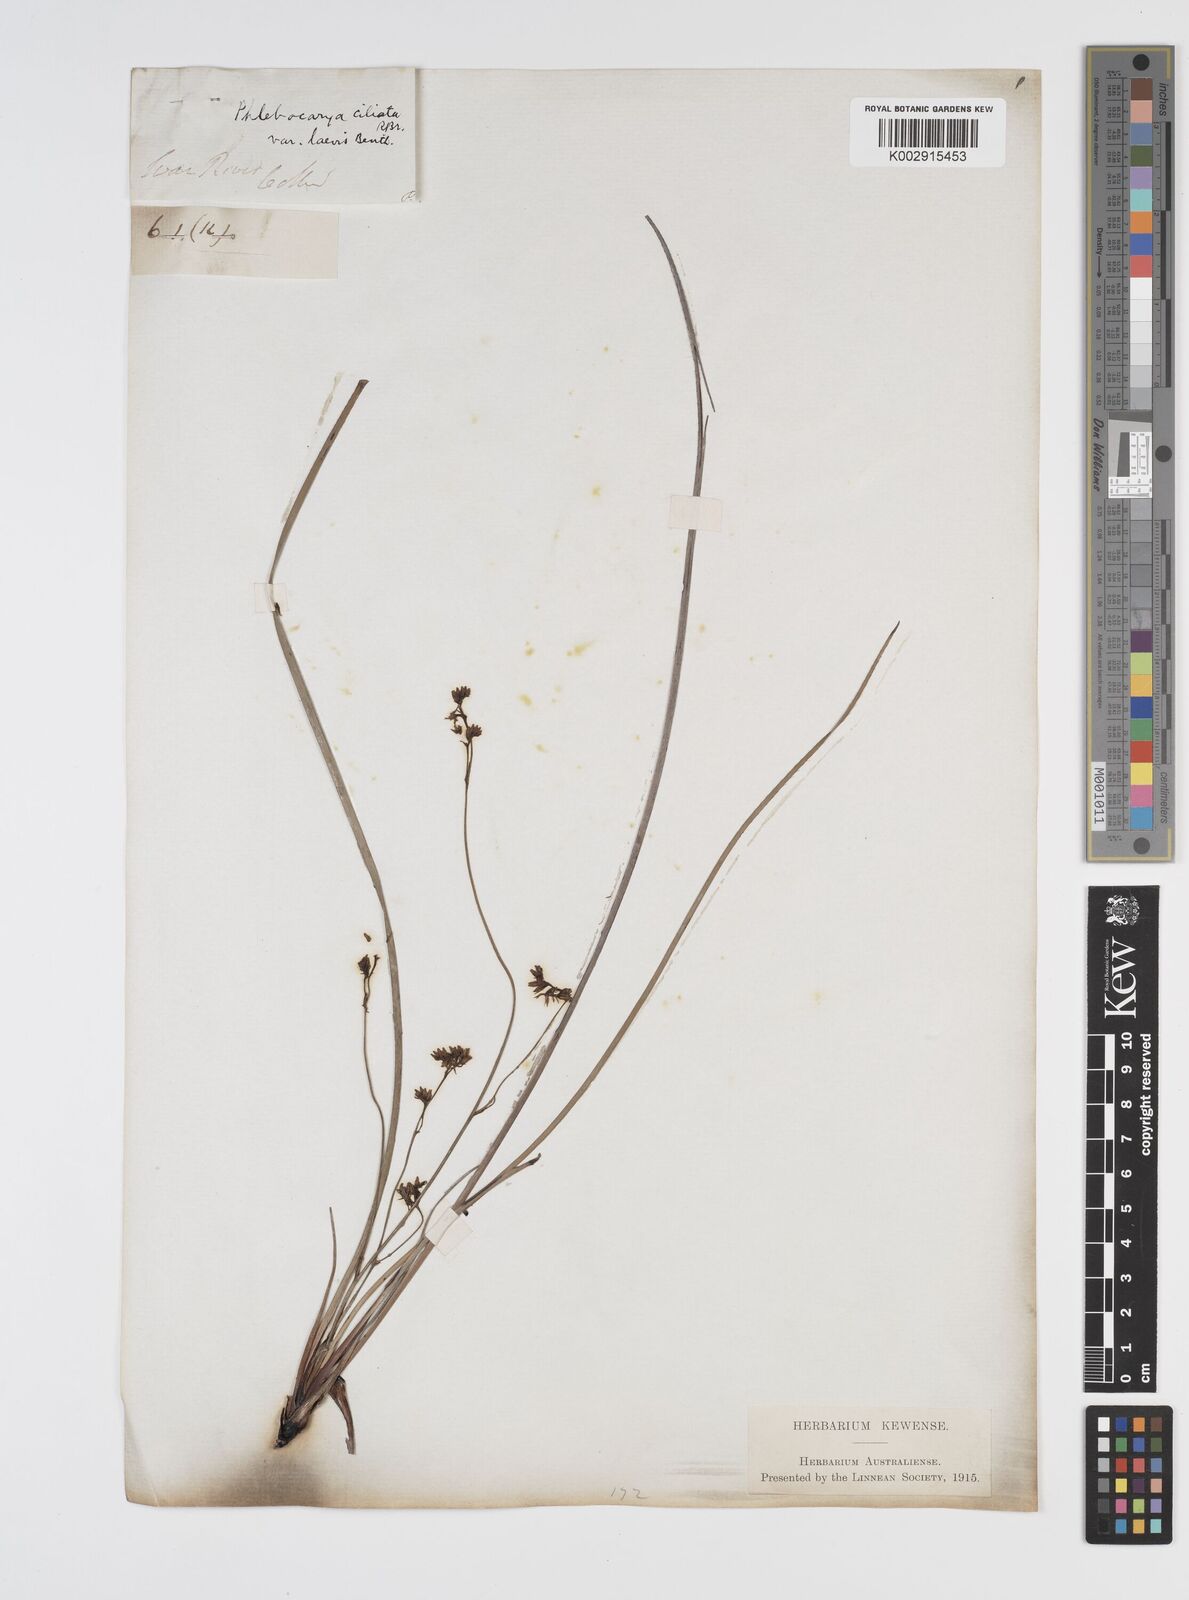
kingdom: Plantae
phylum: Tracheophyta
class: Liliopsida
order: Commelinales
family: Haemodoraceae
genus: Phlebocarya
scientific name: Phlebocarya ciliata
